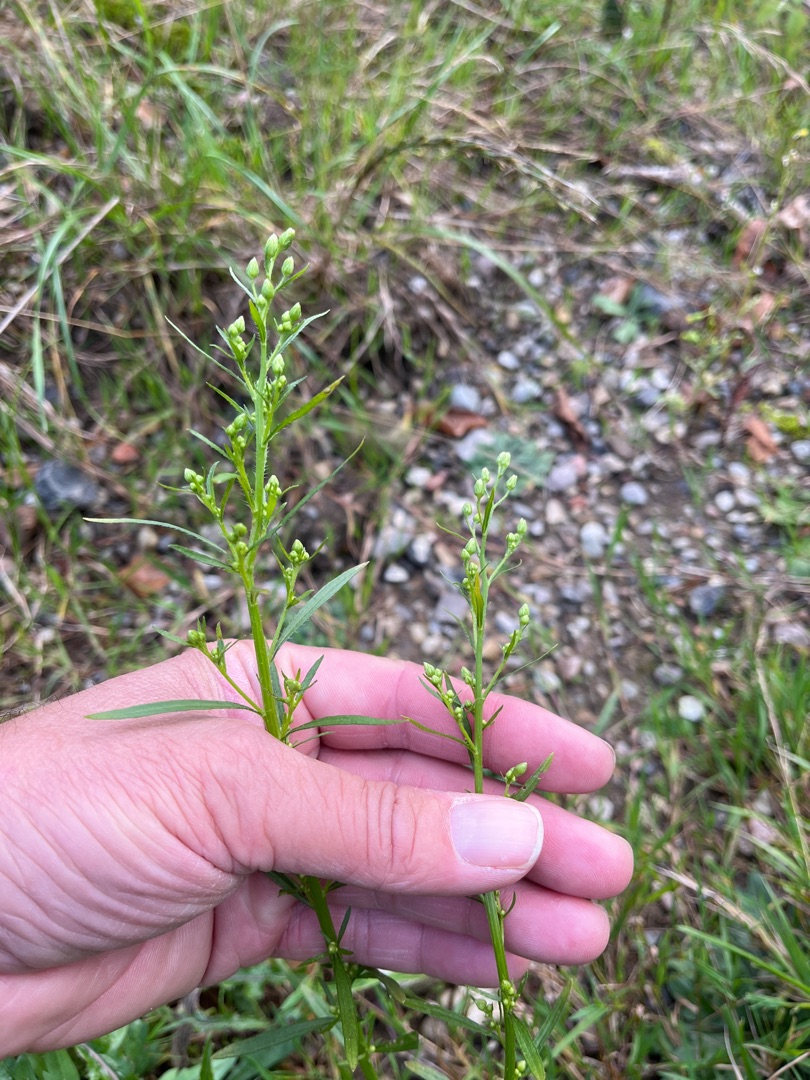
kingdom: Plantae
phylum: Tracheophyta
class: Magnoliopsida
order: Asterales
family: Asteraceae
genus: Erigeron
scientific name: Erigeron canadensis
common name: Kanadisk bakkestjerne
